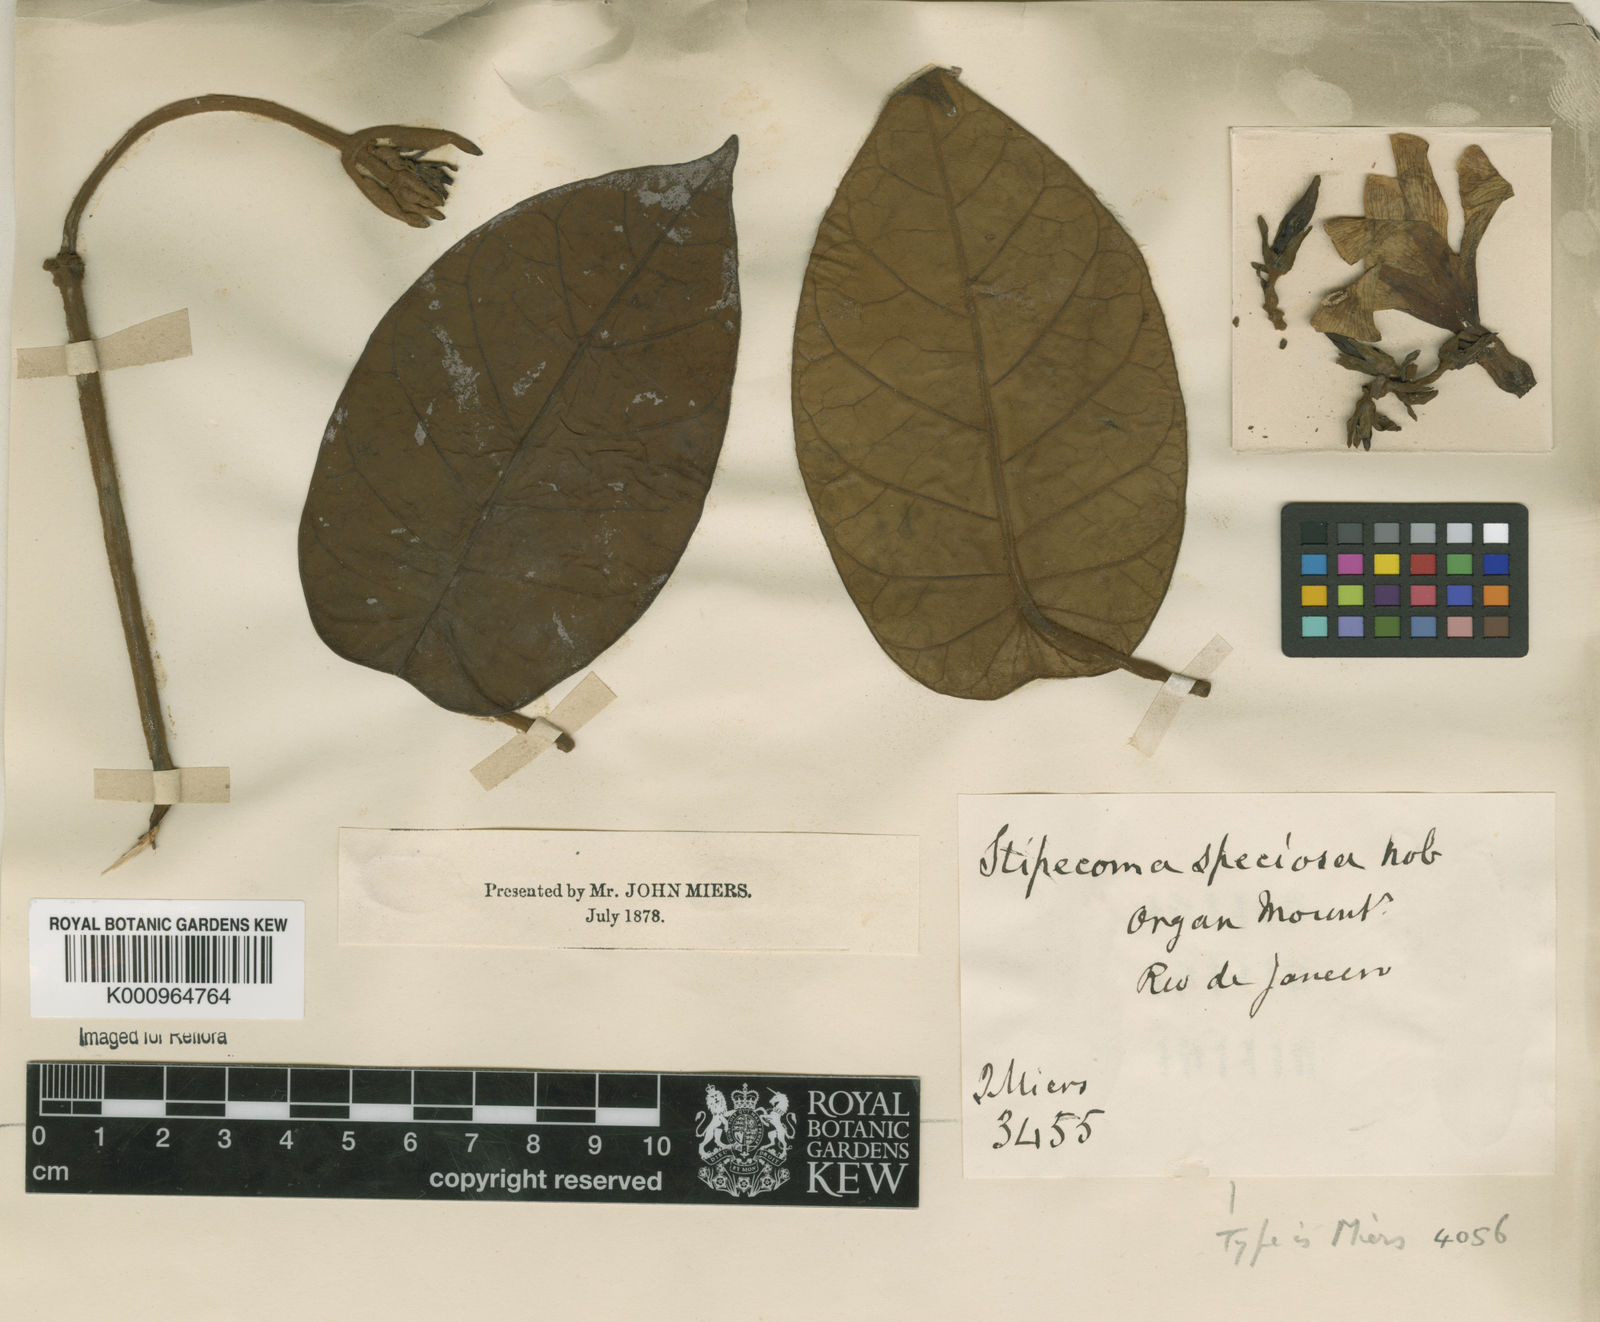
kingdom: Plantae
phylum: Tracheophyta
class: Magnoliopsida
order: Gentianales
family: Apocynaceae
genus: Macropharynx
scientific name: Macropharynx peltata
